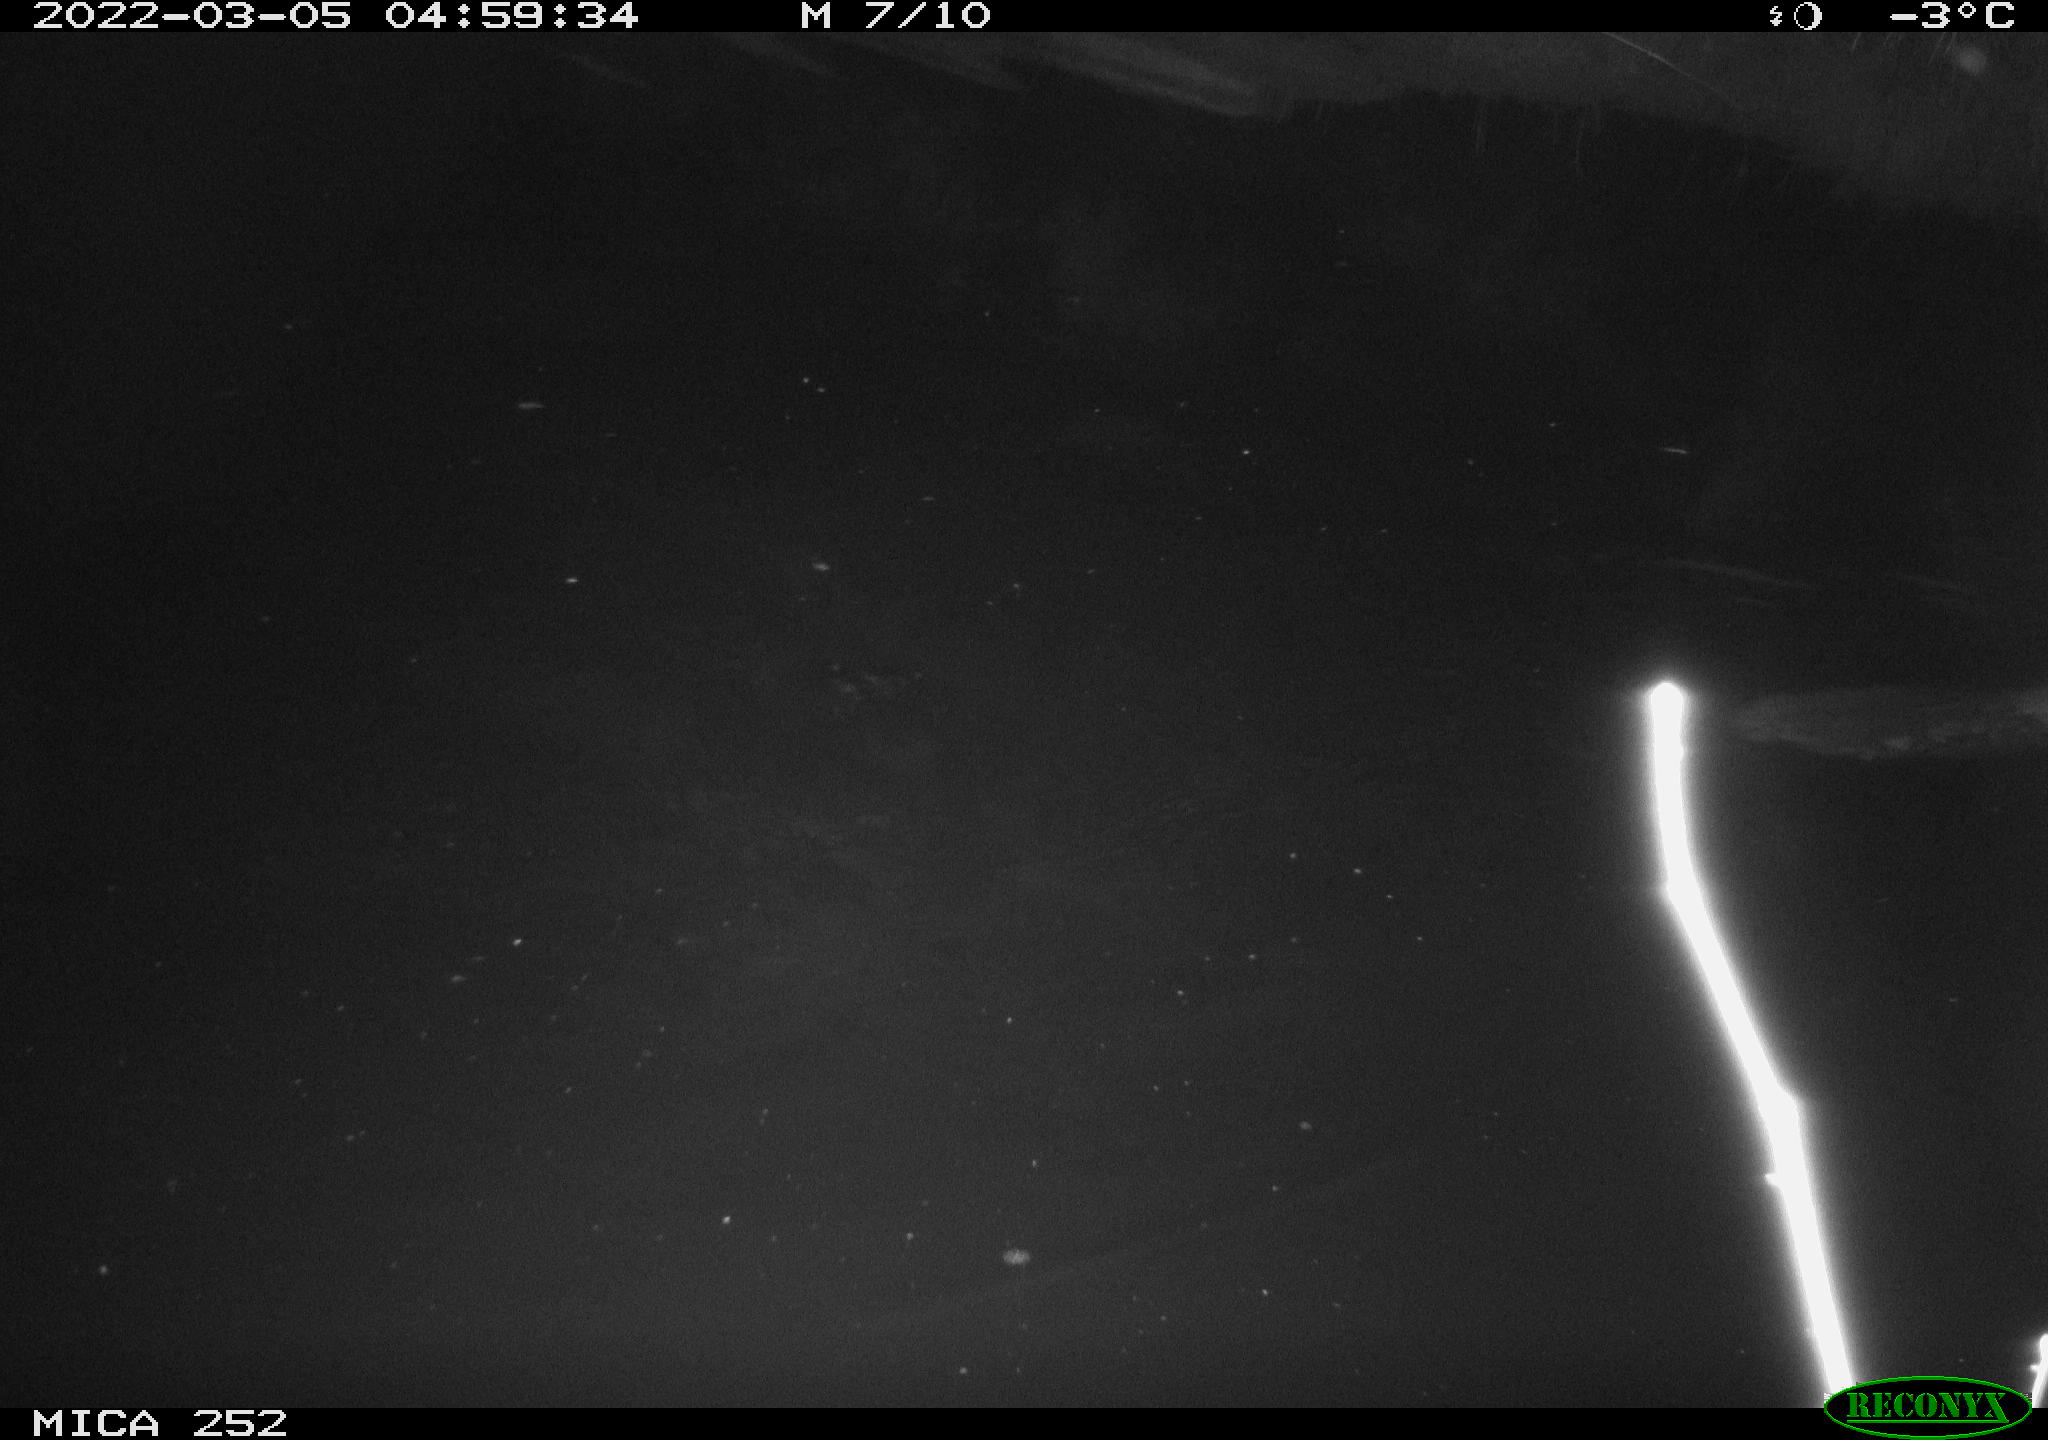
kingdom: Animalia
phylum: Chordata
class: Mammalia
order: Rodentia
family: Castoridae
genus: Castor
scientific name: Castor fiber
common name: Eurasian beaver
